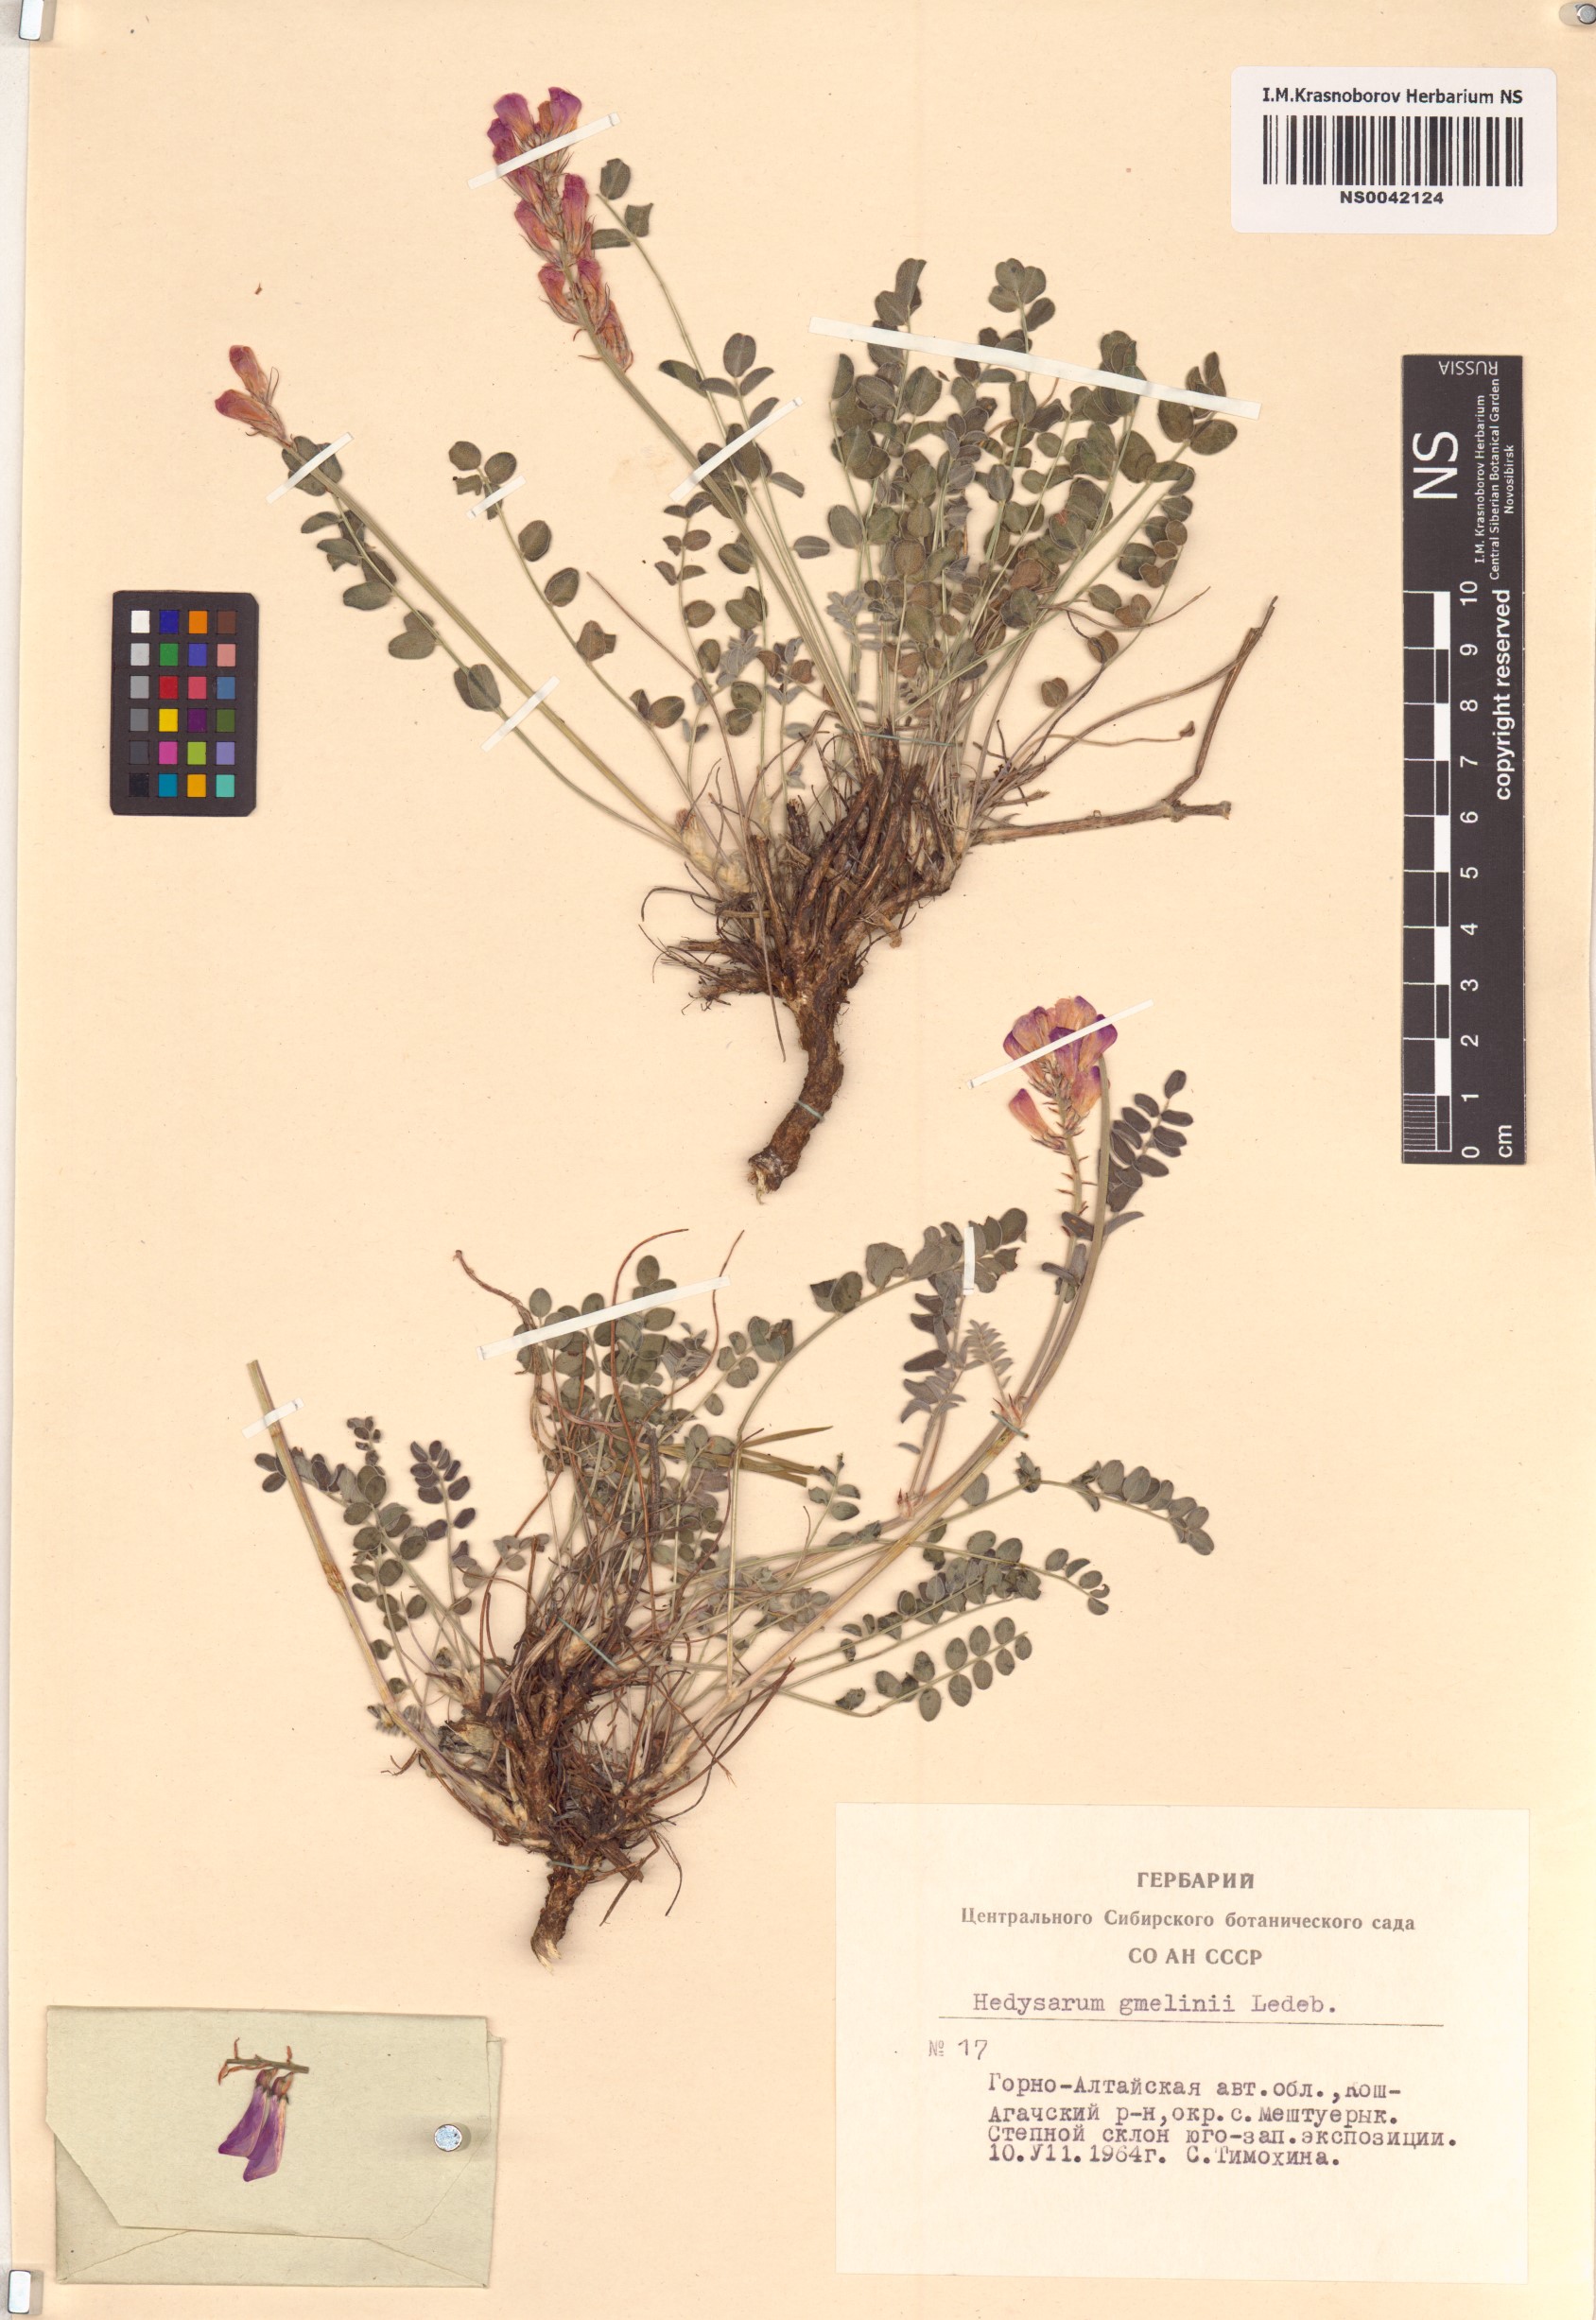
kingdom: Plantae
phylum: Tracheophyta
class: Magnoliopsida
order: Fabales
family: Fabaceae
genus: Hedysarum
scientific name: Hedysarum gmelinii
